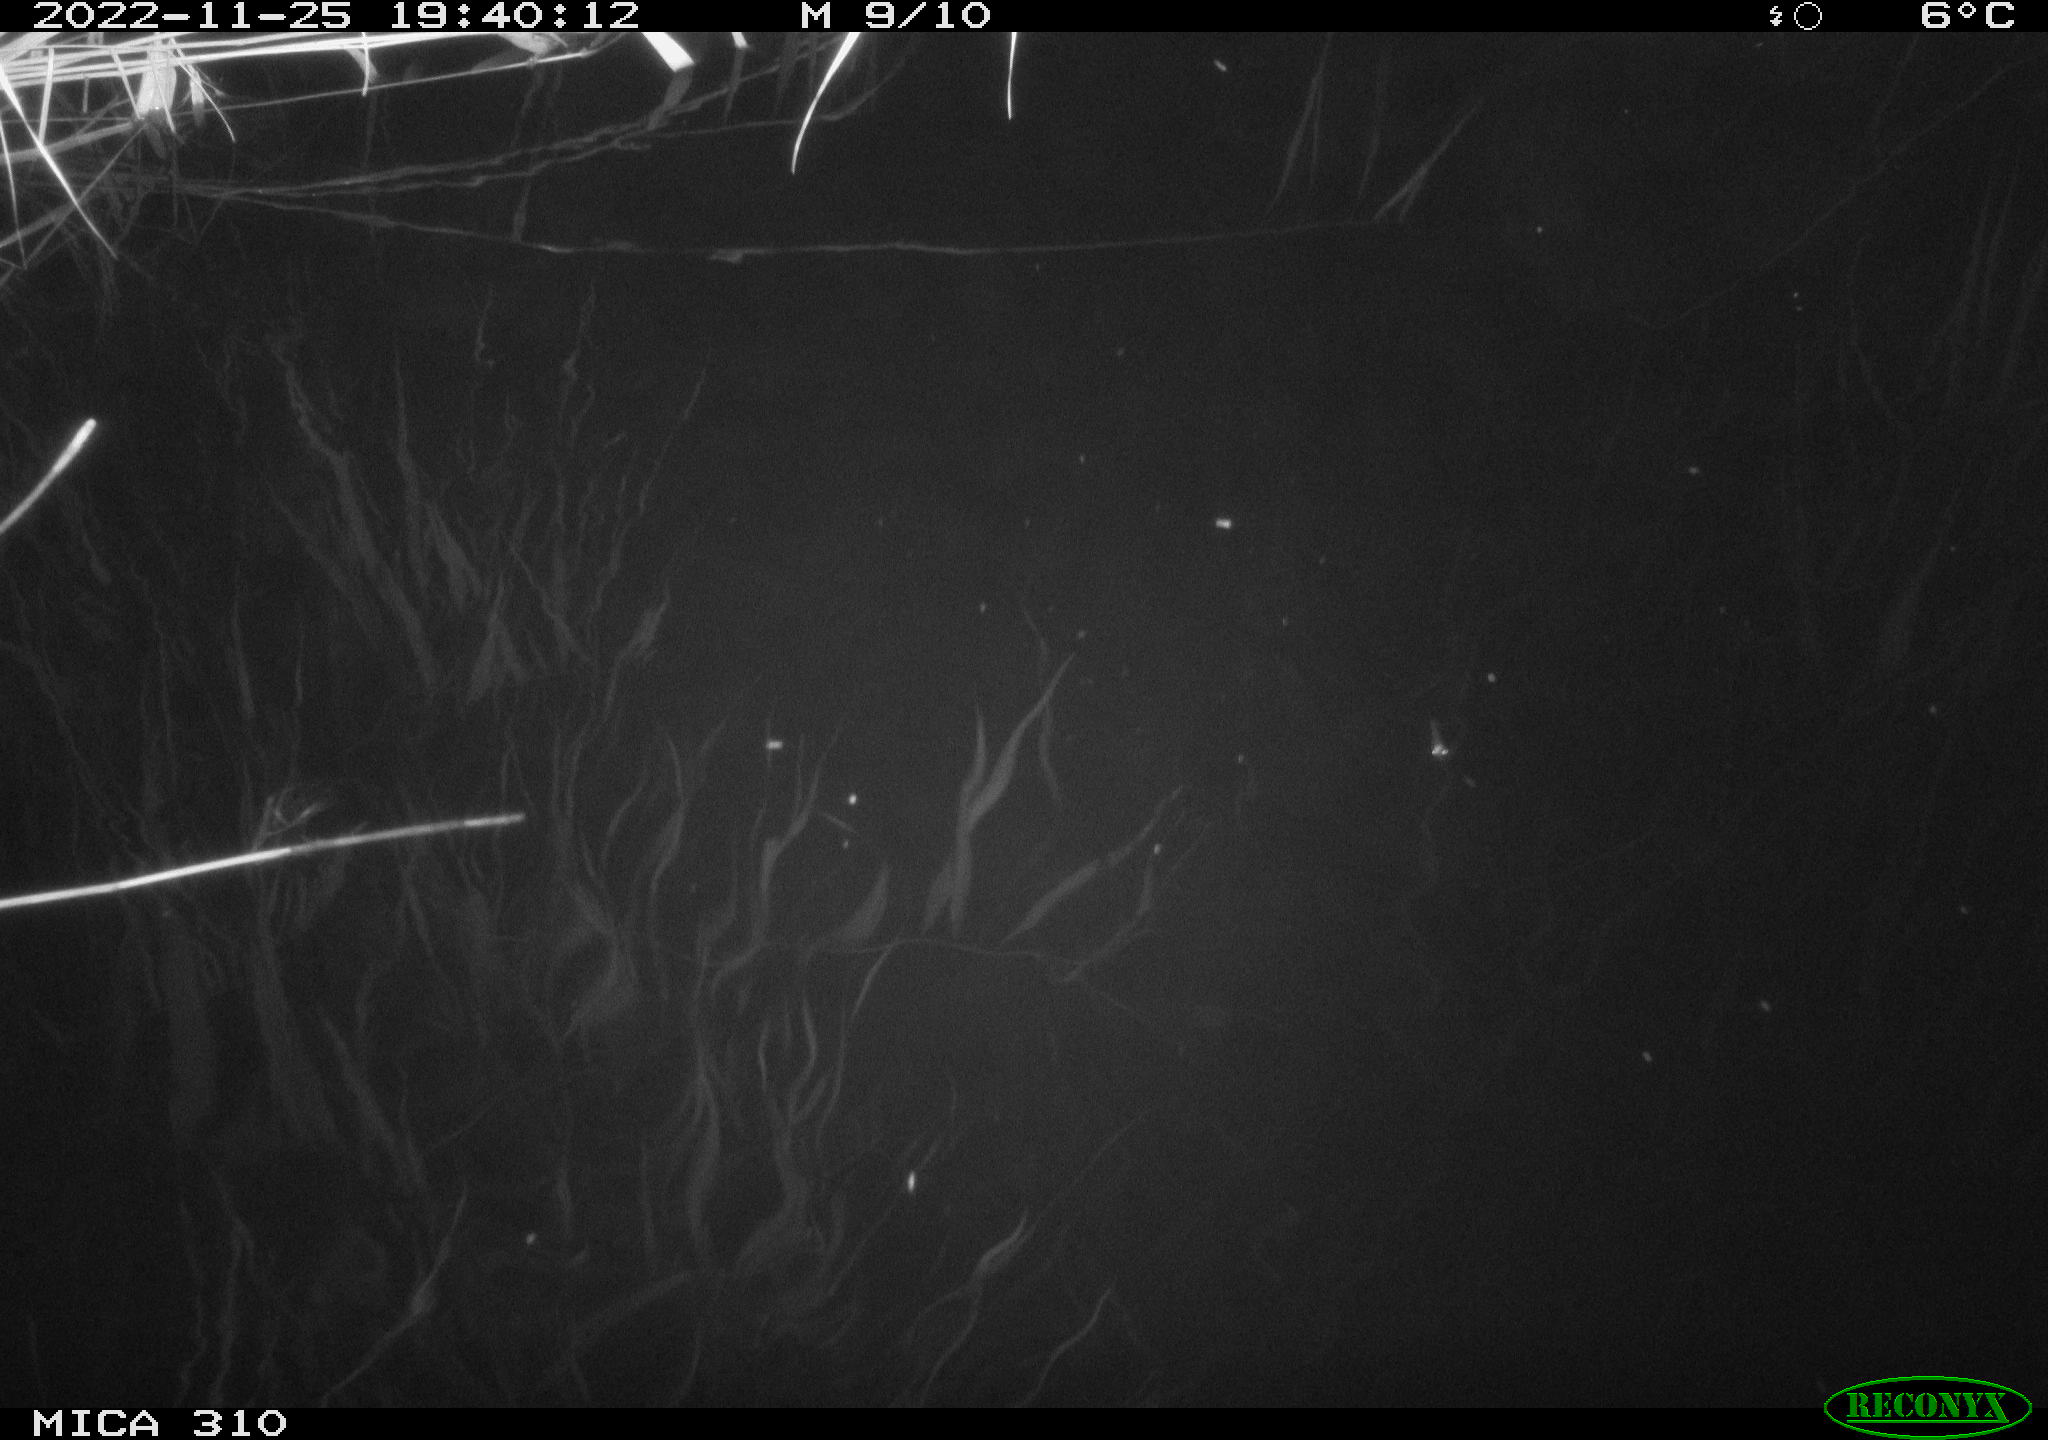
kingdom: Animalia
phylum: Chordata
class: Mammalia
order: Rodentia
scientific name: Rodentia
